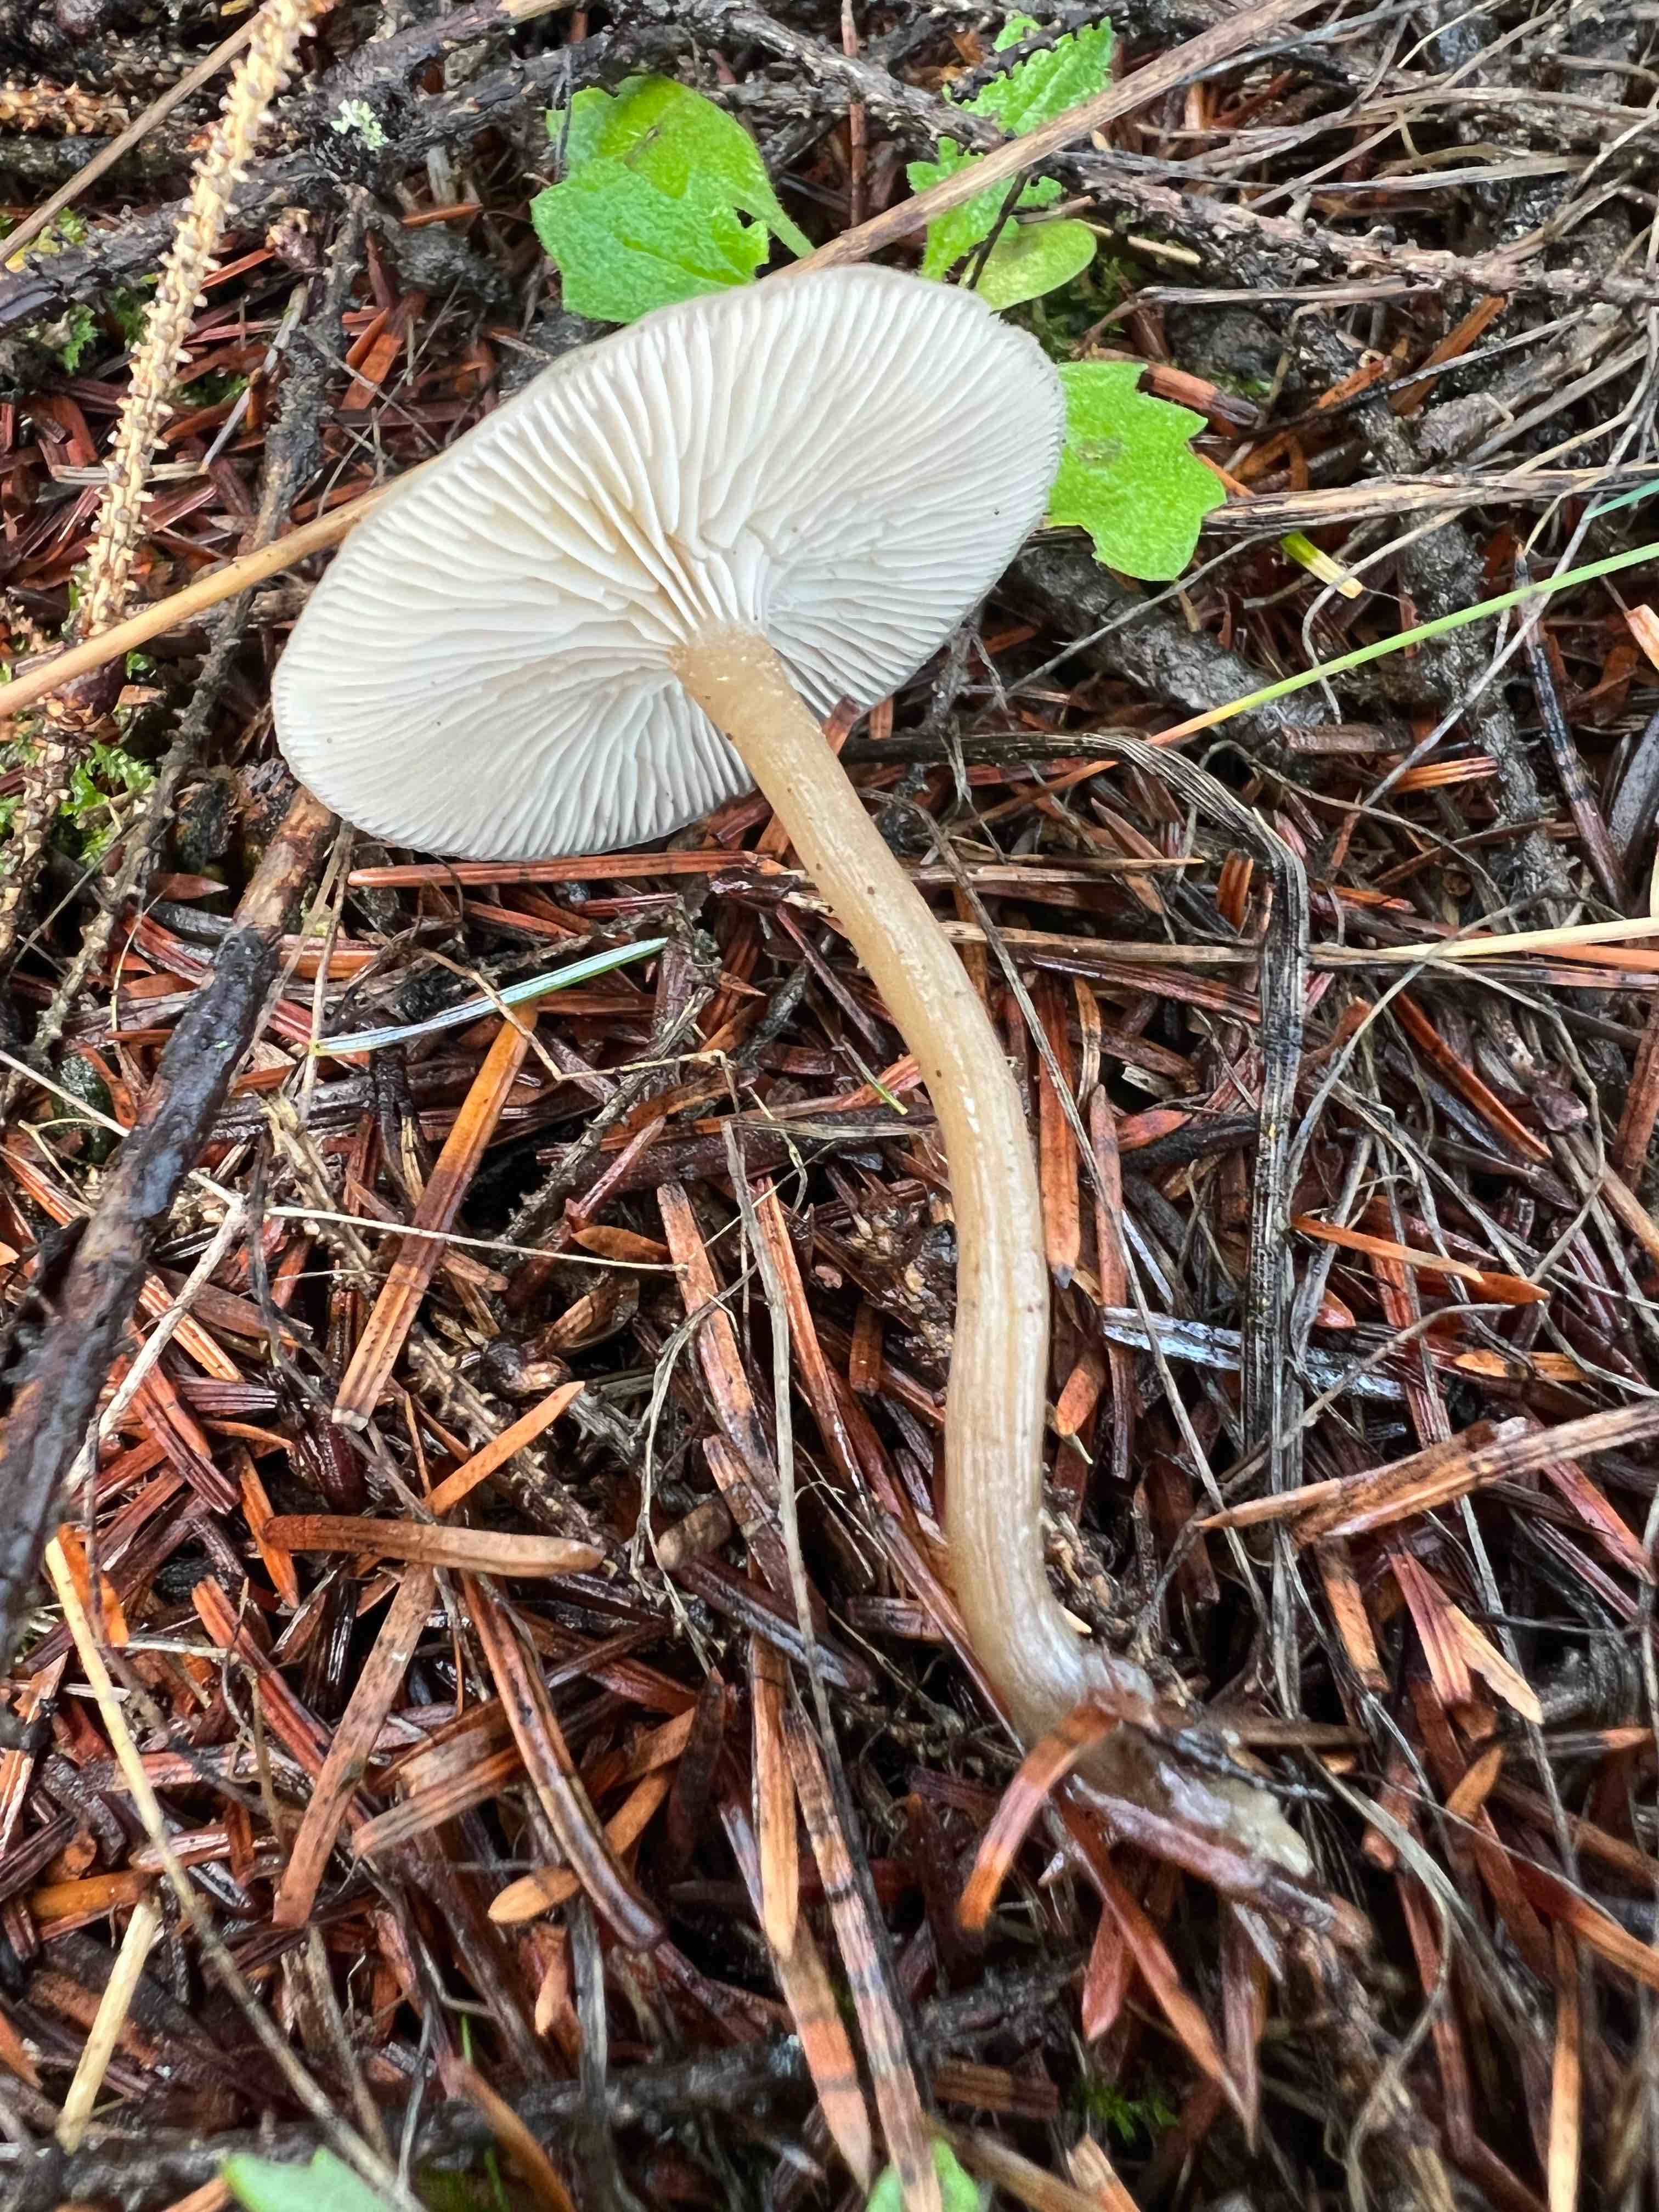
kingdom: Fungi
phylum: Basidiomycota
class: Agaricomycetes
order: Agaricales
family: Tricholomataceae
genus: Clitocybe
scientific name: Clitocybe
